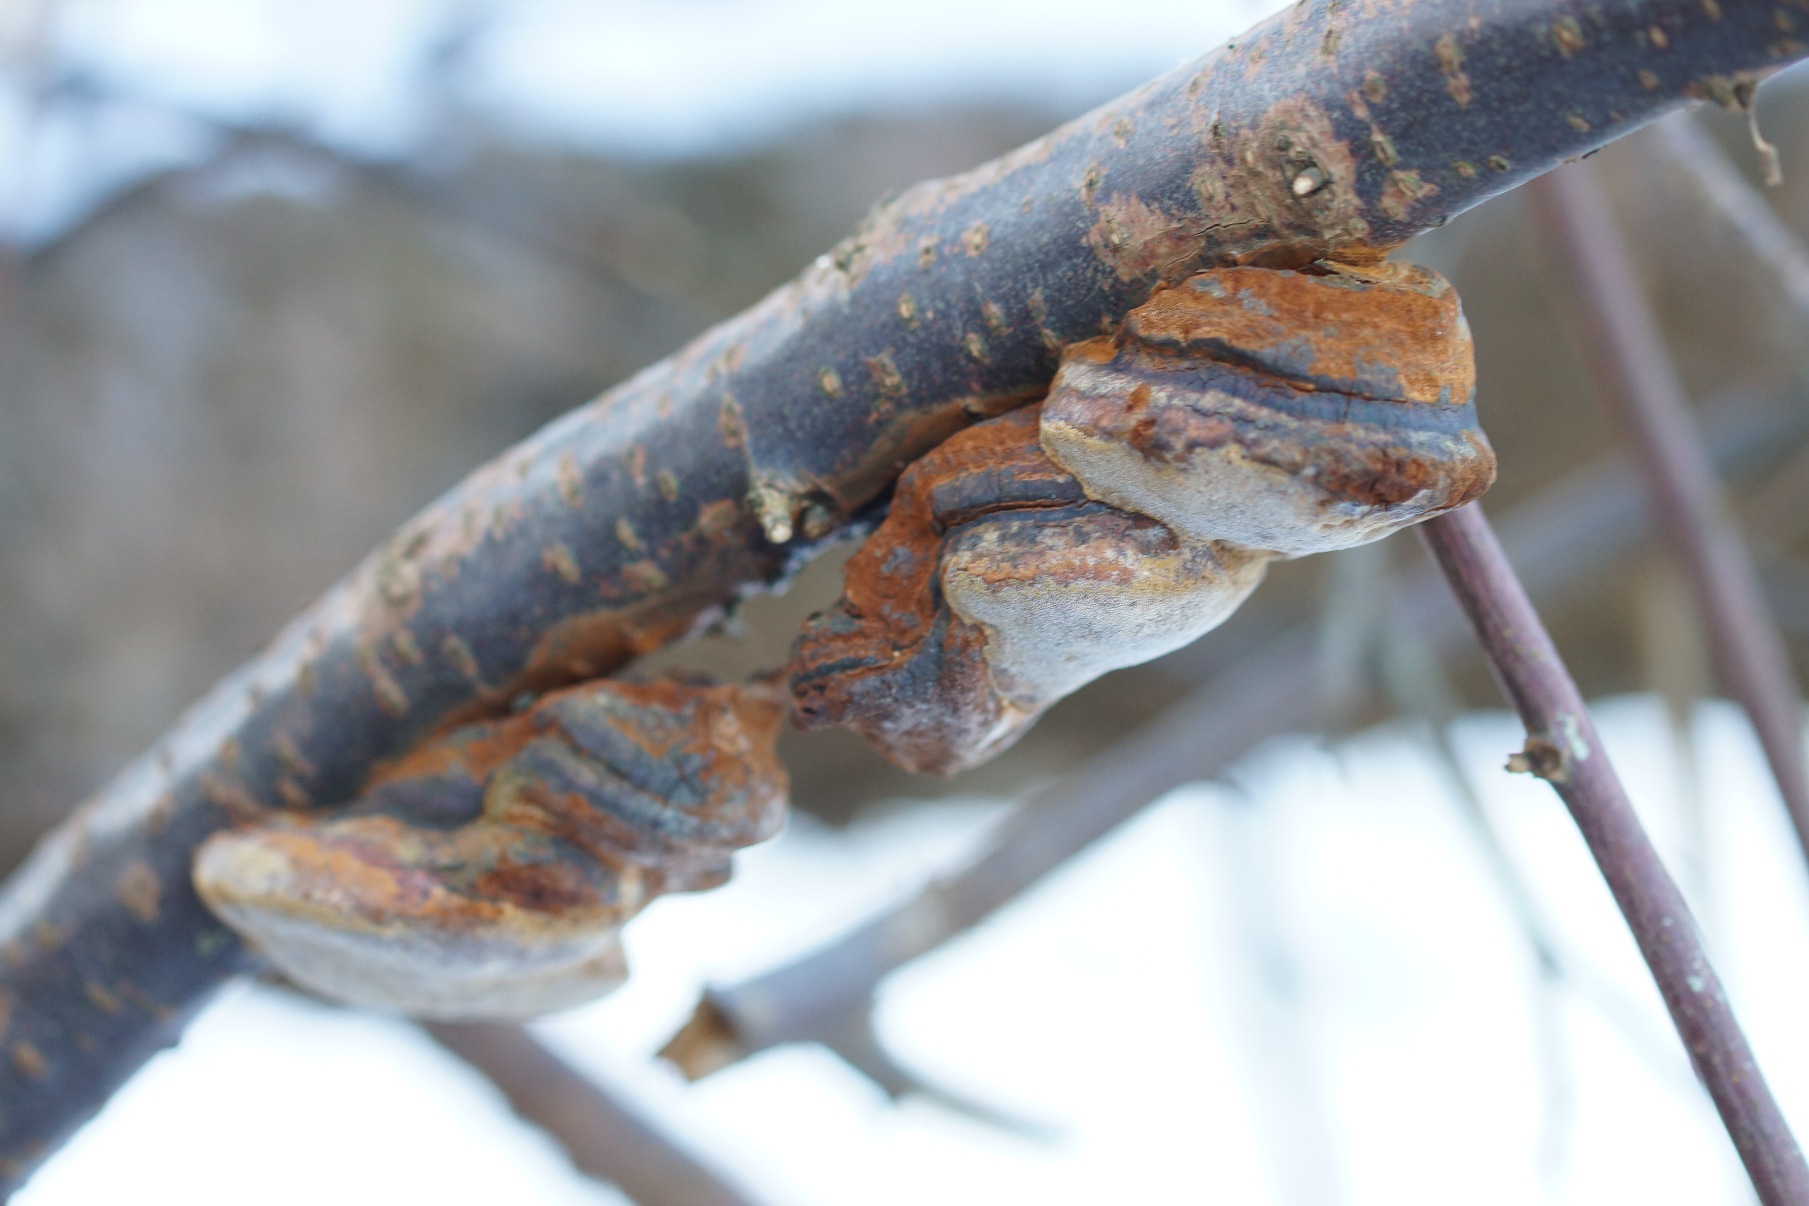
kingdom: Fungi
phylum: Basidiomycota
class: Agaricomycetes
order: Hymenochaetales
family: Hymenochaetaceae
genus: Phellinus
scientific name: Phellinus pomaceus
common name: Blomme-ildporesvamp
